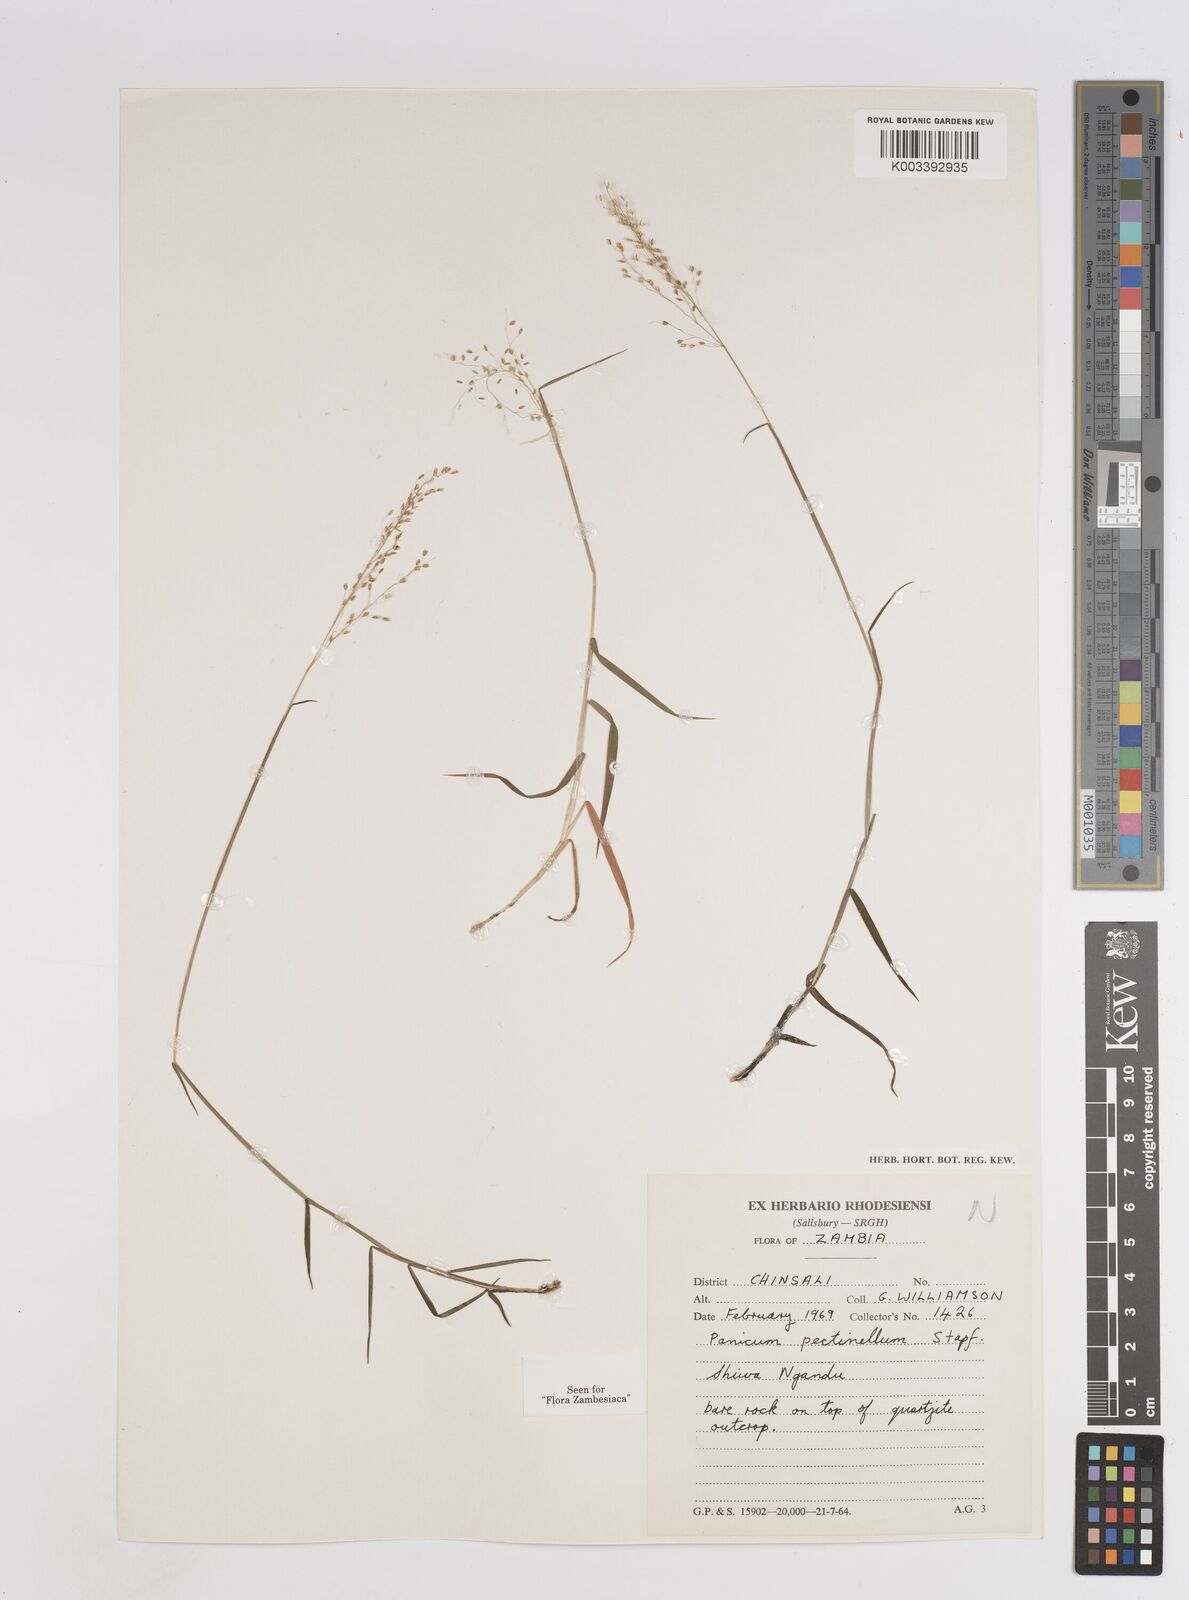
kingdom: Plantae
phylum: Tracheophyta
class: Liliopsida
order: Poales
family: Poaceae
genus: Adenochloa
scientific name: Adenochloa pectinella
